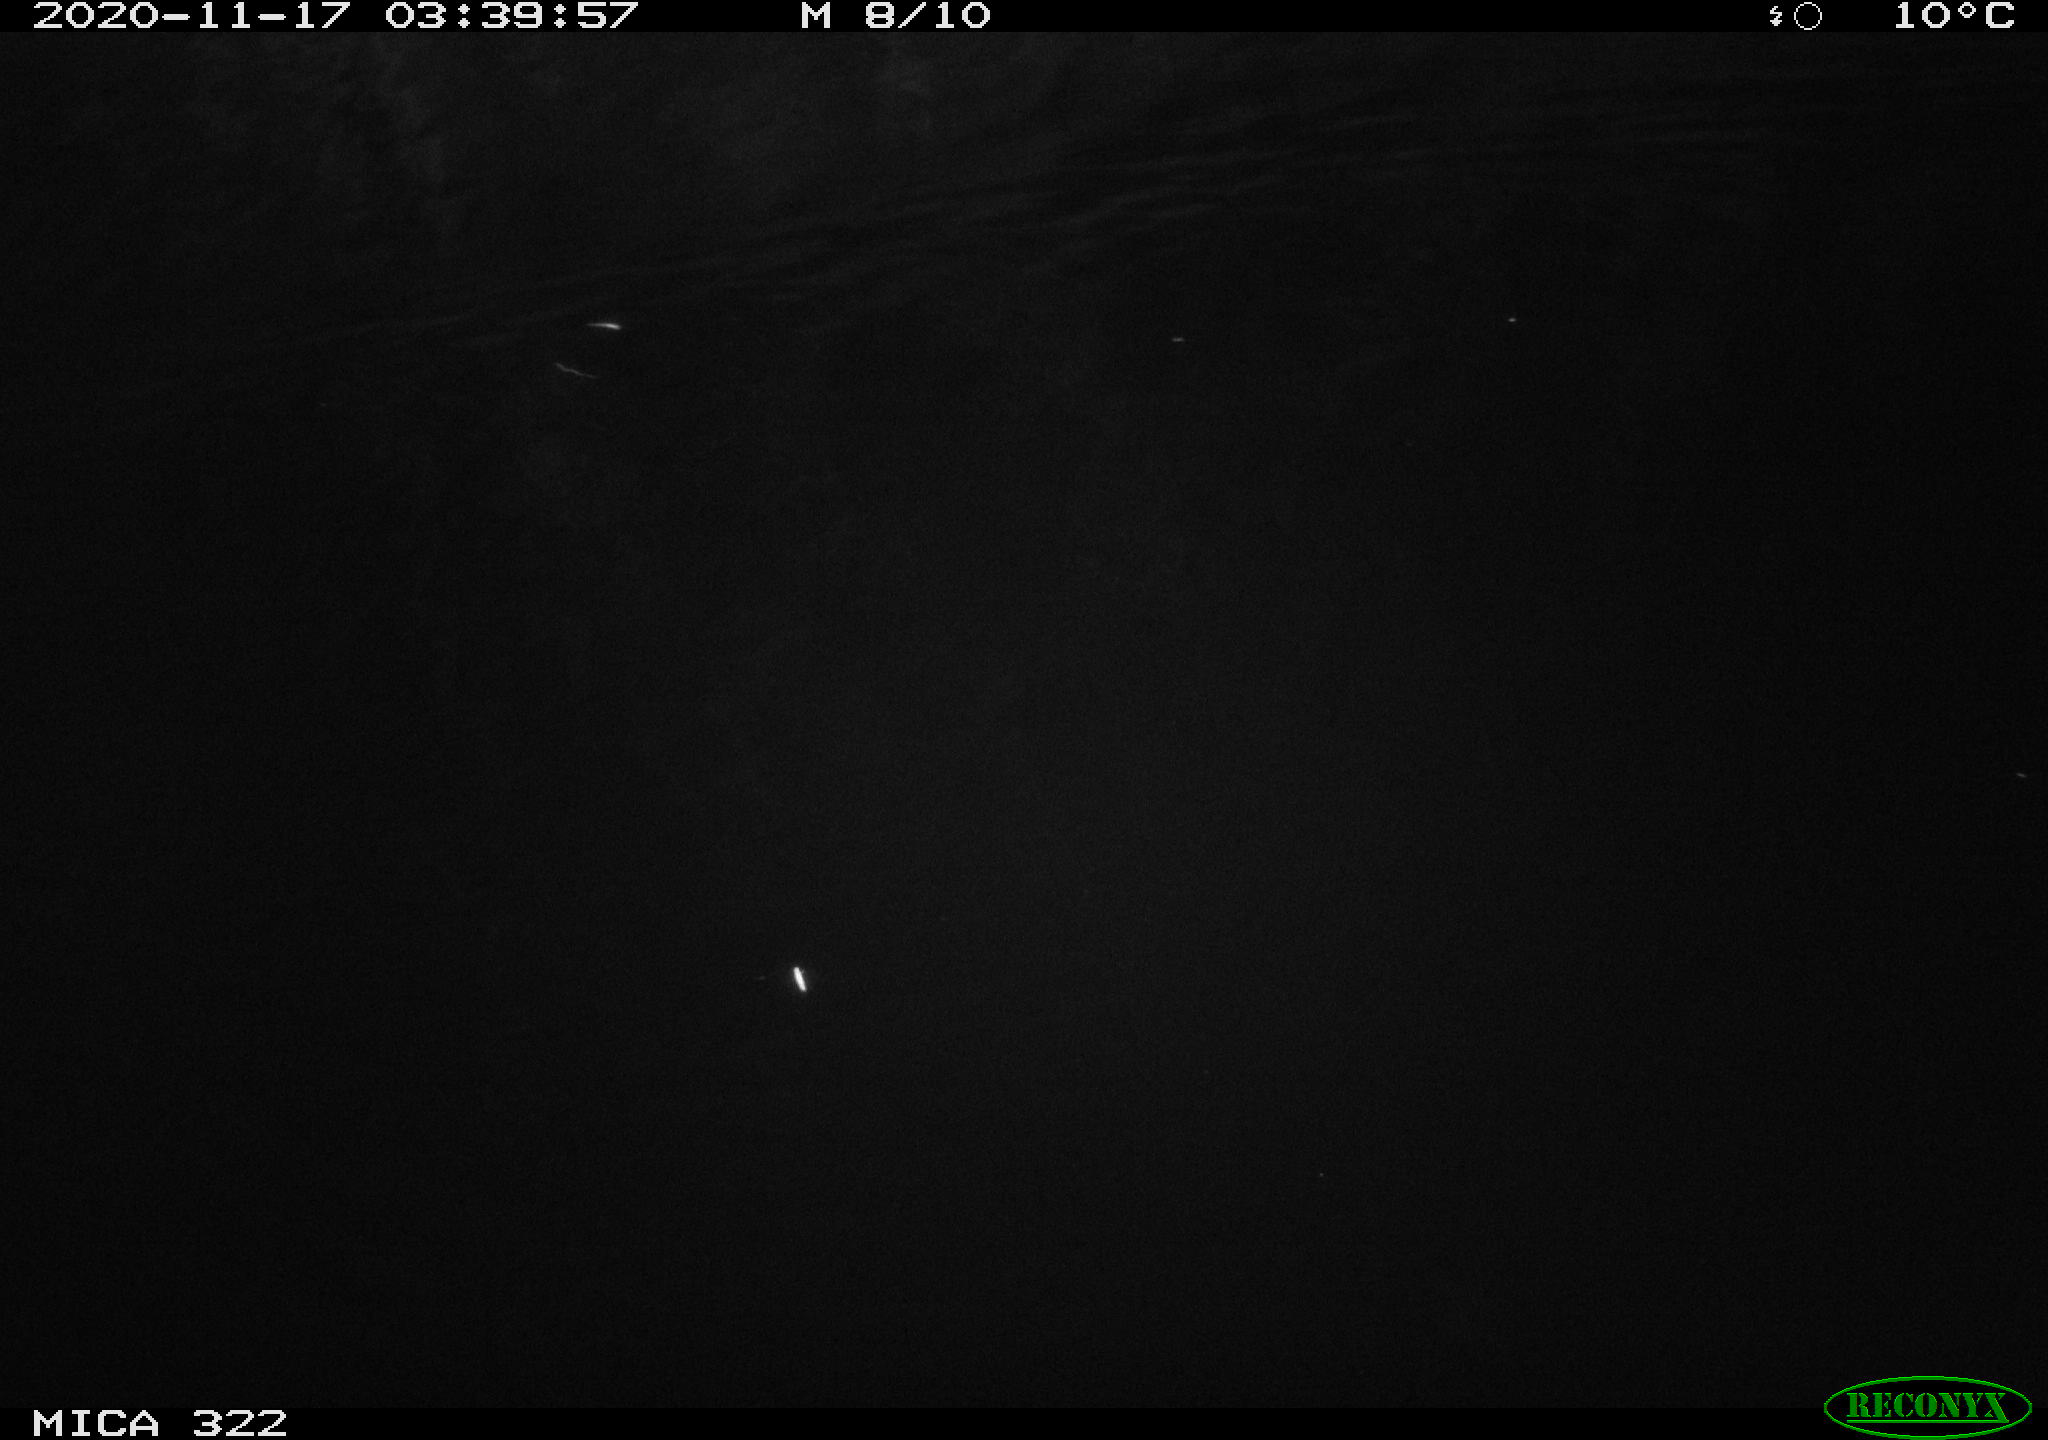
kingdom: Animalia
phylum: Chordata
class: Mammalia
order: Rodentia
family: Muridae
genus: Rattus
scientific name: Rattus norvegicus
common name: Brown rat
